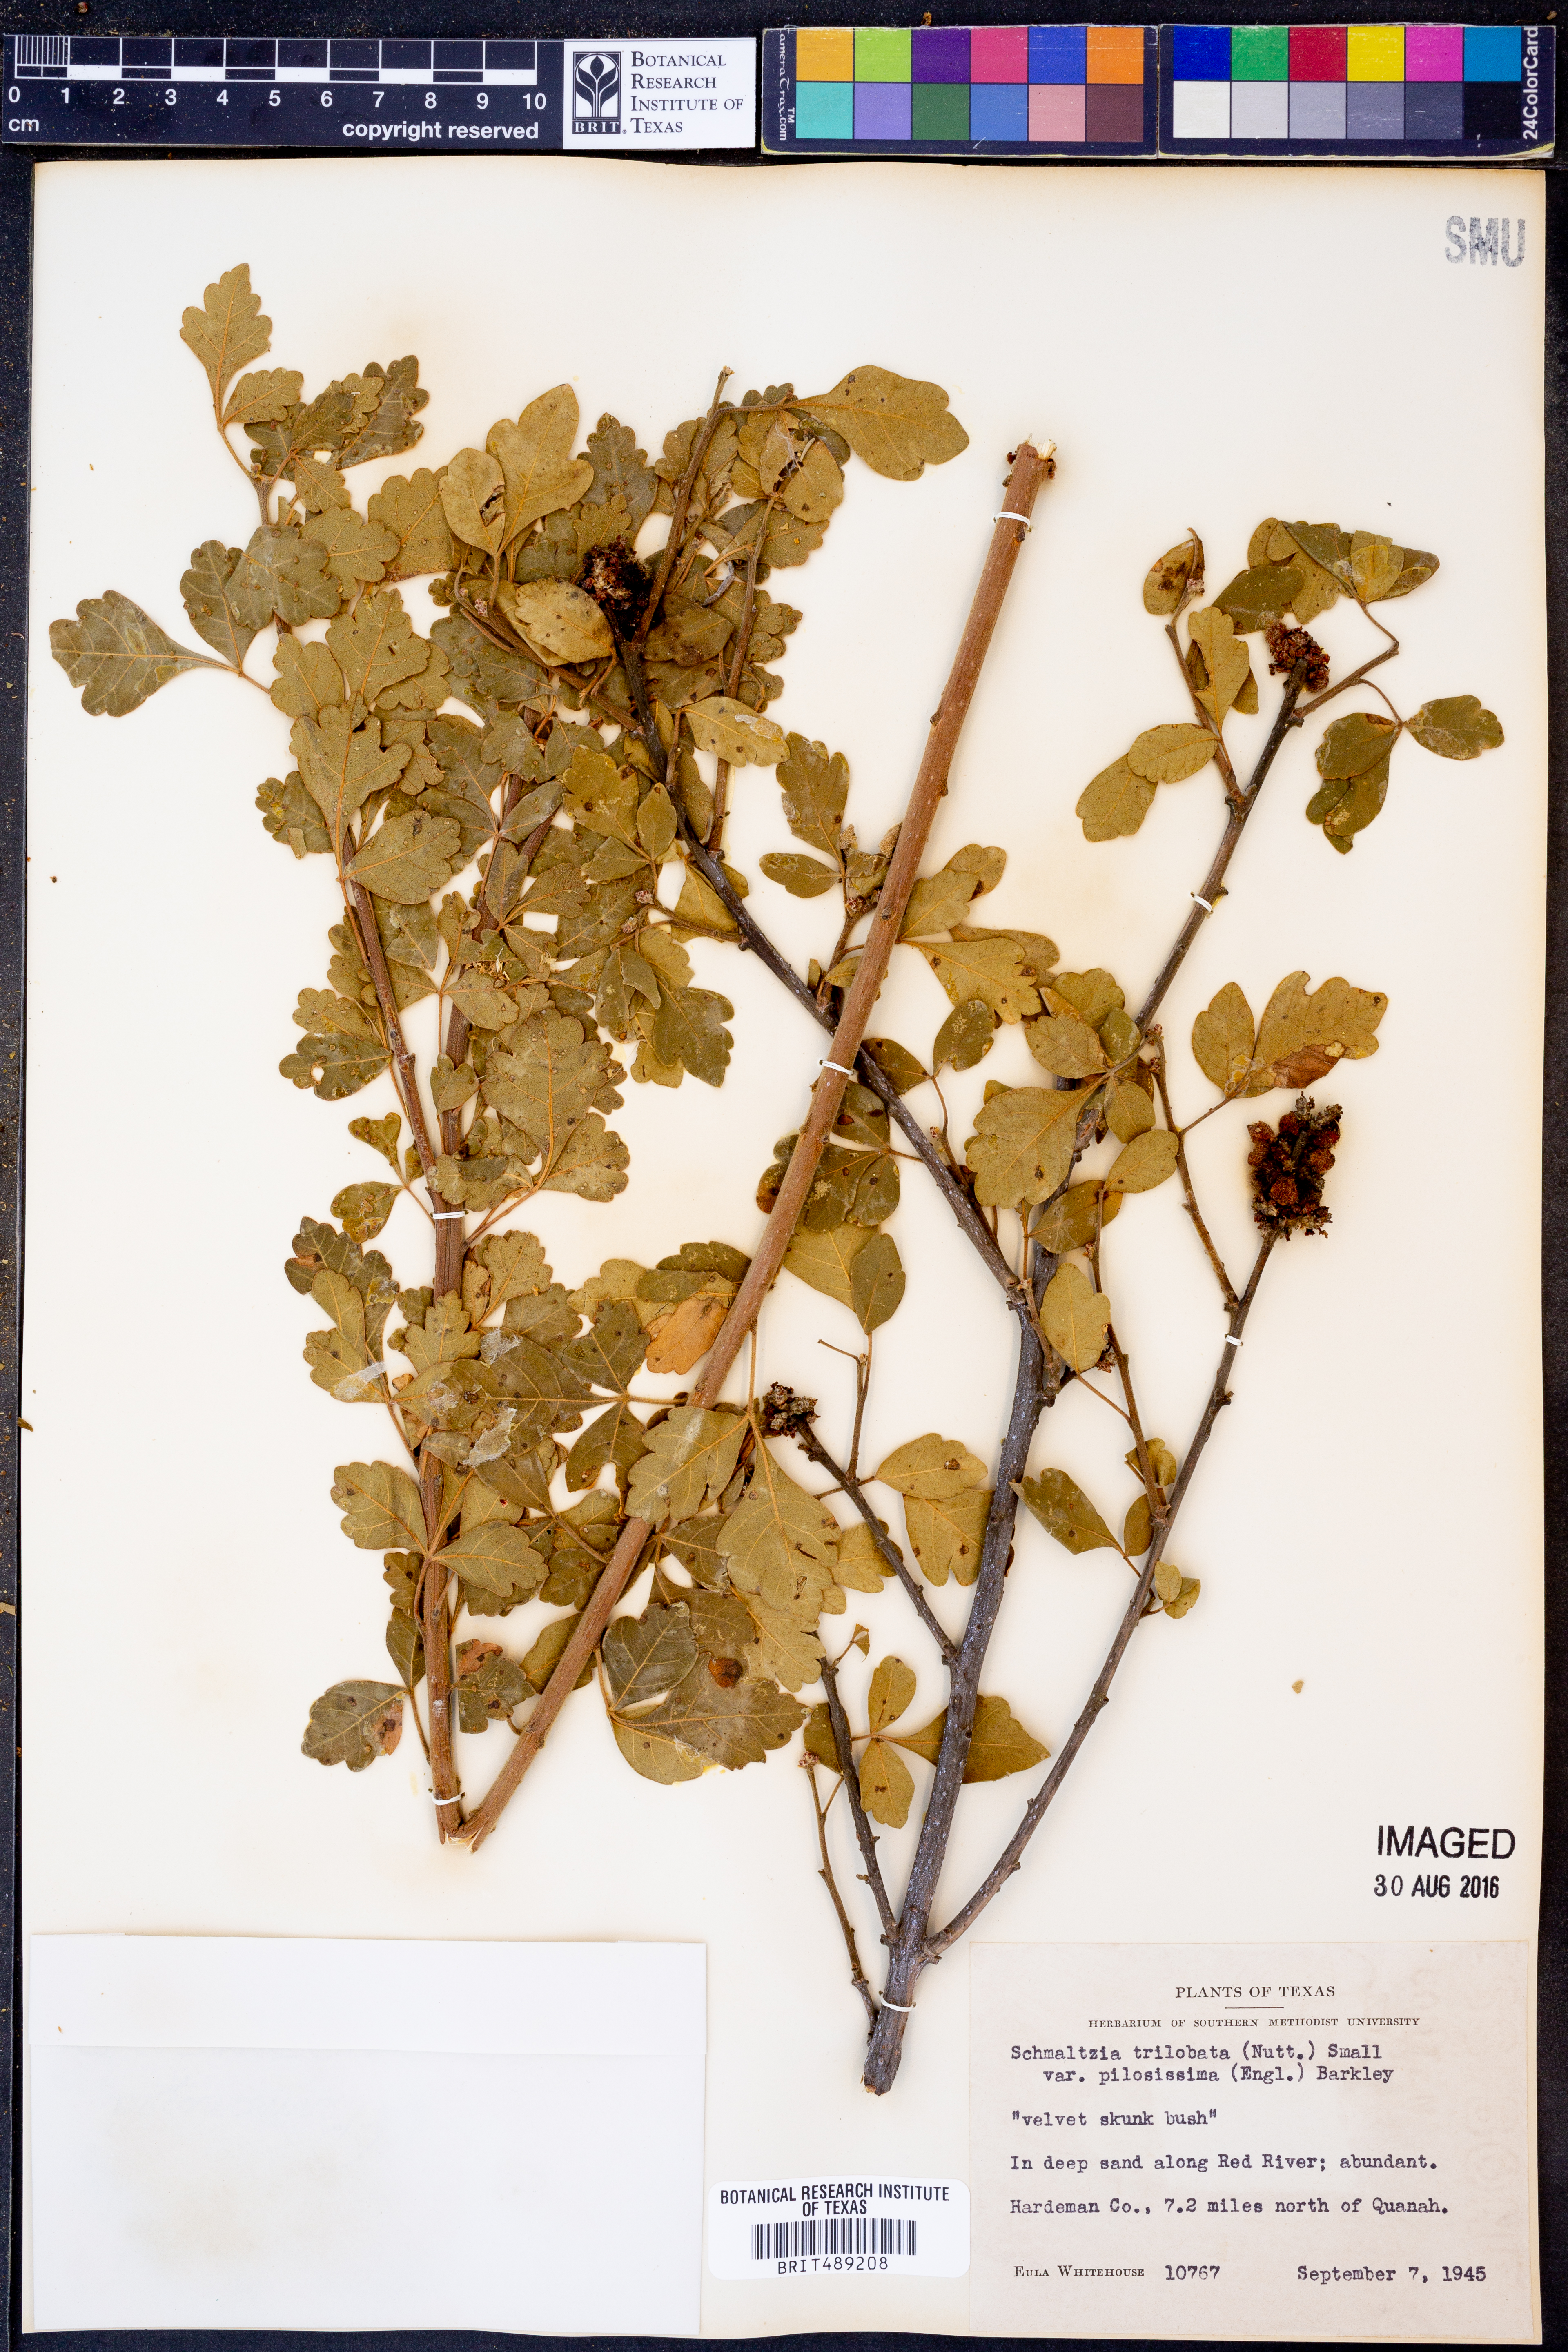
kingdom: Plantae
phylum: Tracheophyta
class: Magnoliopsida
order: Sapindales
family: Anacardiaceae
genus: Rhus
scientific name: Rhus trilobata
